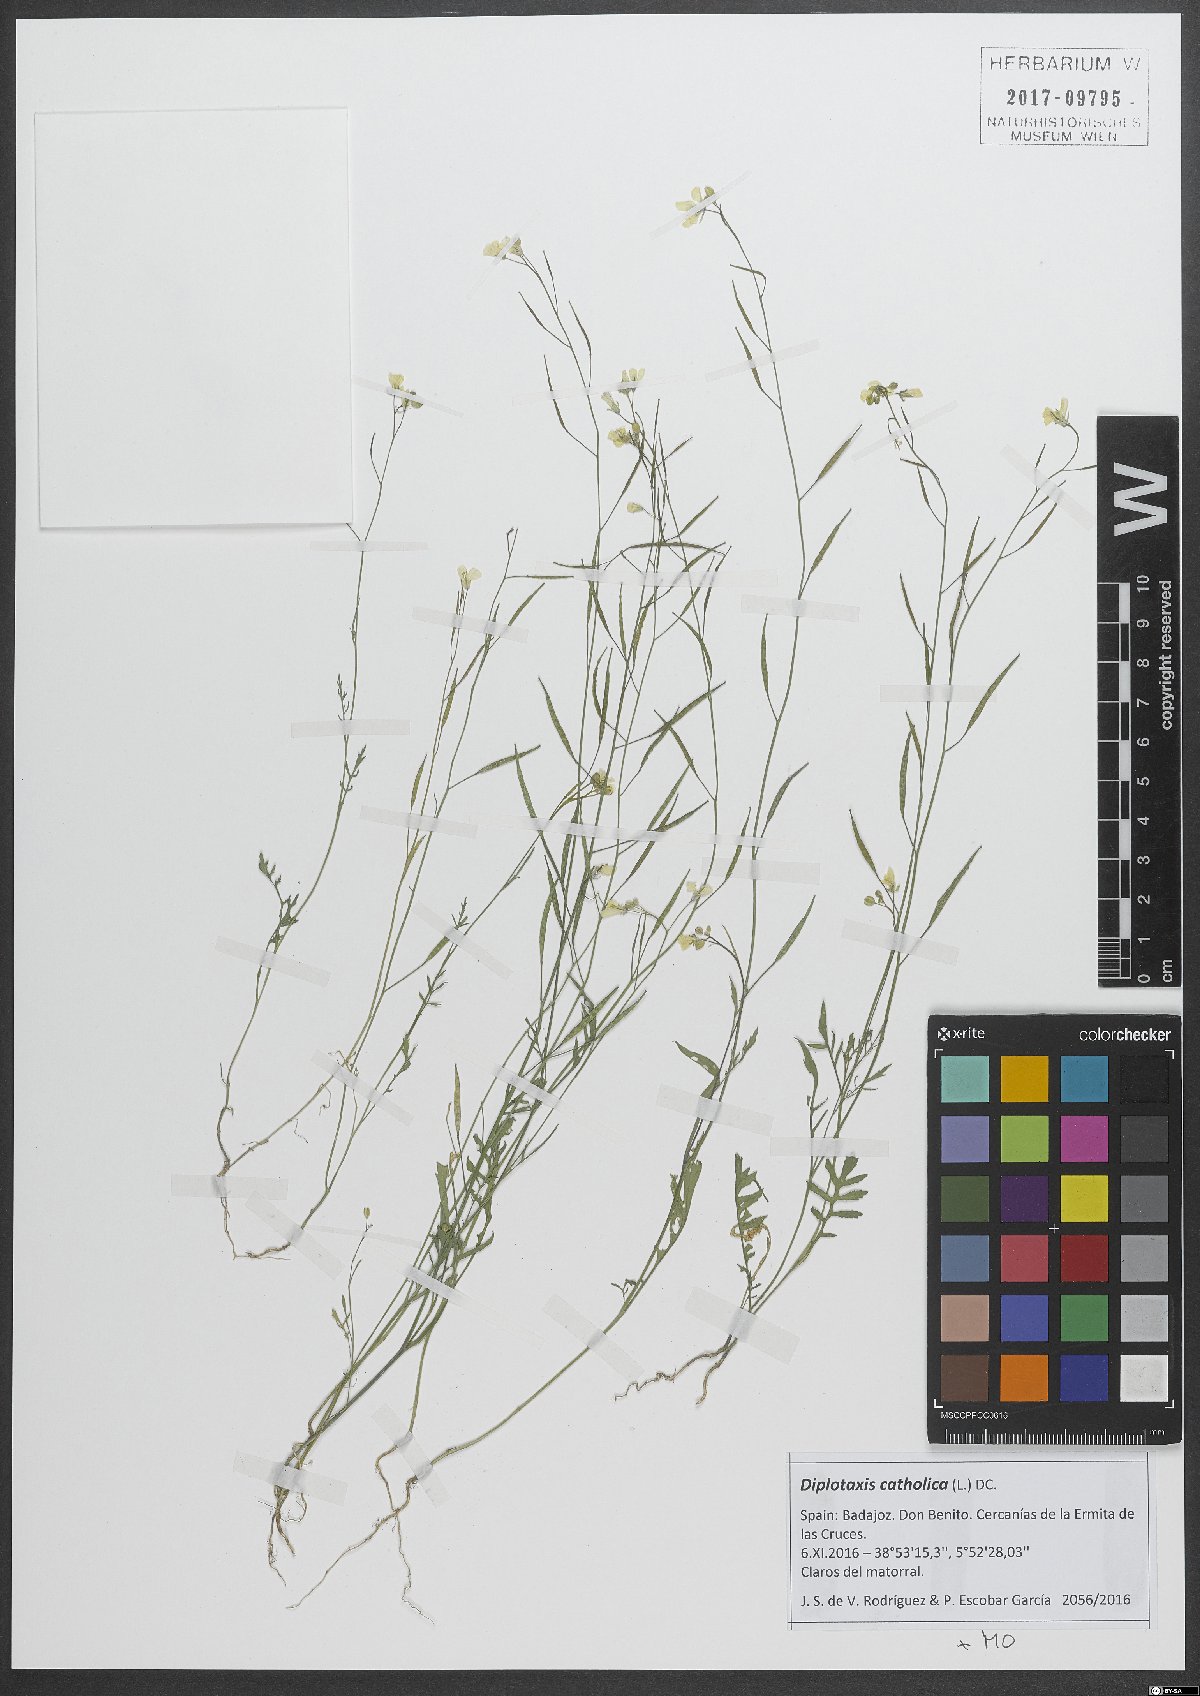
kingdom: Plantae
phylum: Tracheophyta
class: Magnoliopsida
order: Brassicales
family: Brassicaceae
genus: Diplotaxis
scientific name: Diplotaxis catholica
